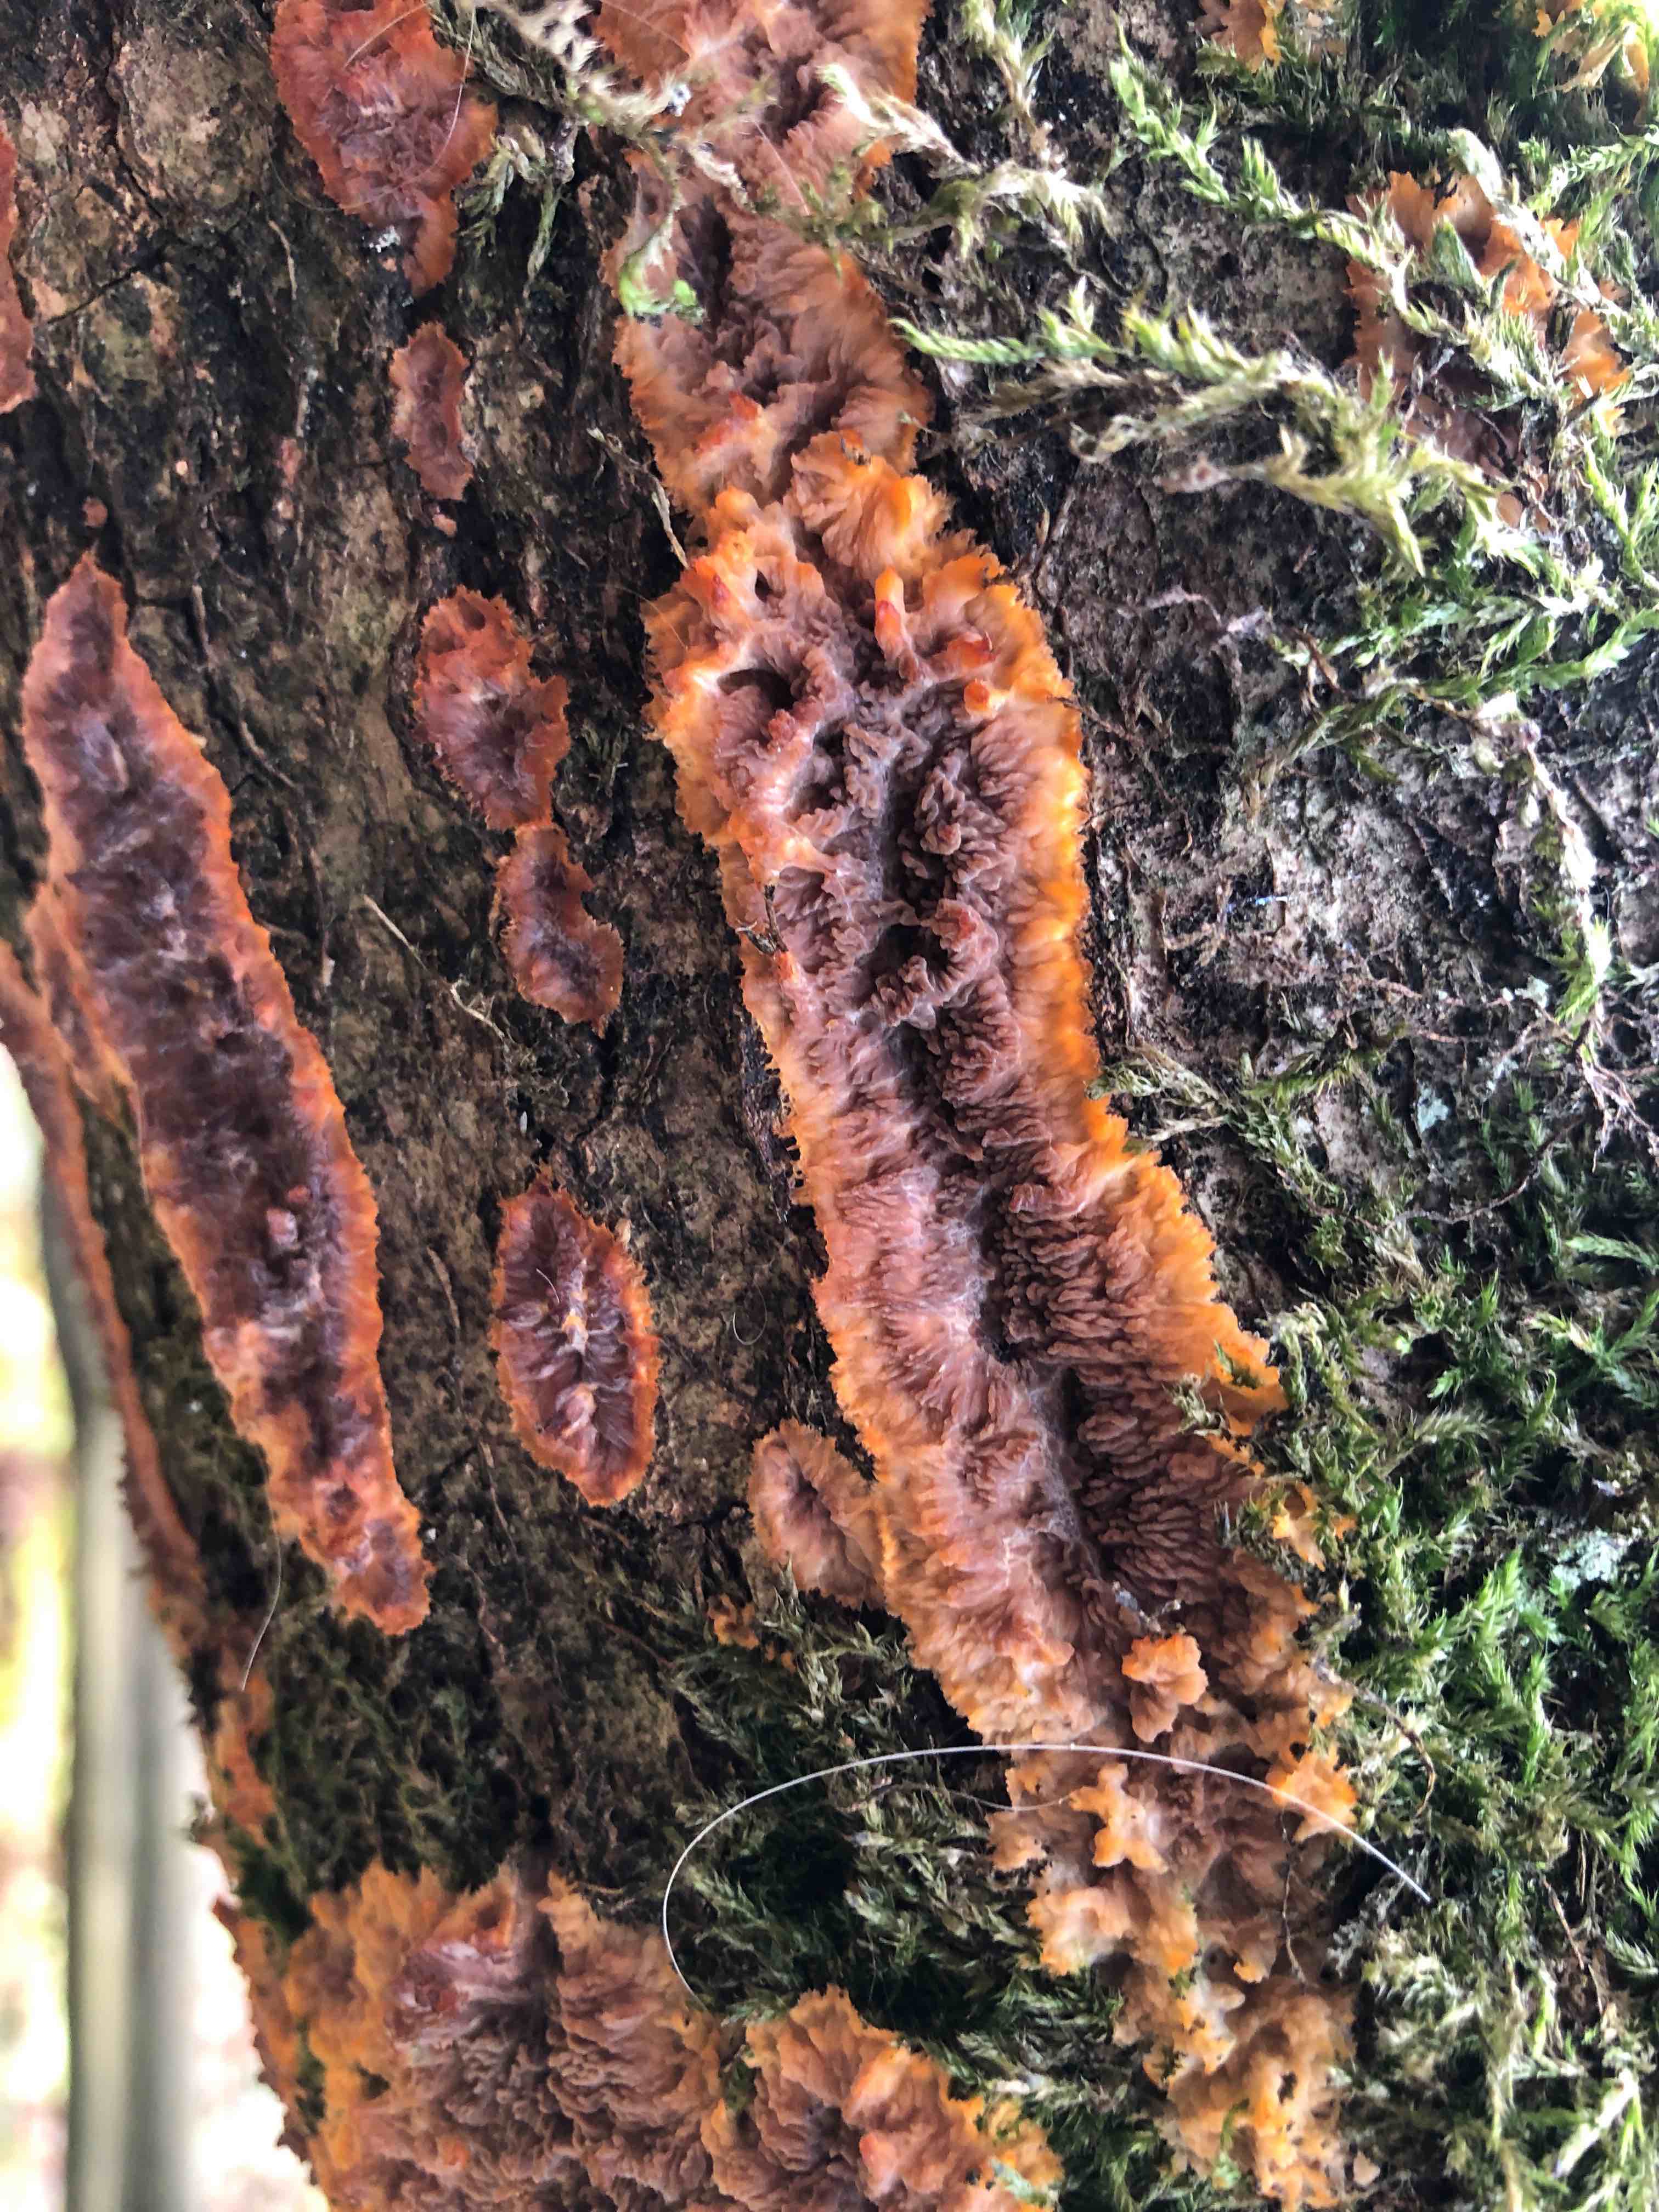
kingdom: Fungi
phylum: Basidiomycota
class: Agaricomycetes
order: Polyporales
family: Meruliaceae
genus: Phlebia
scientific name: Phlebia radiata
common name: stråle-åresvamp
